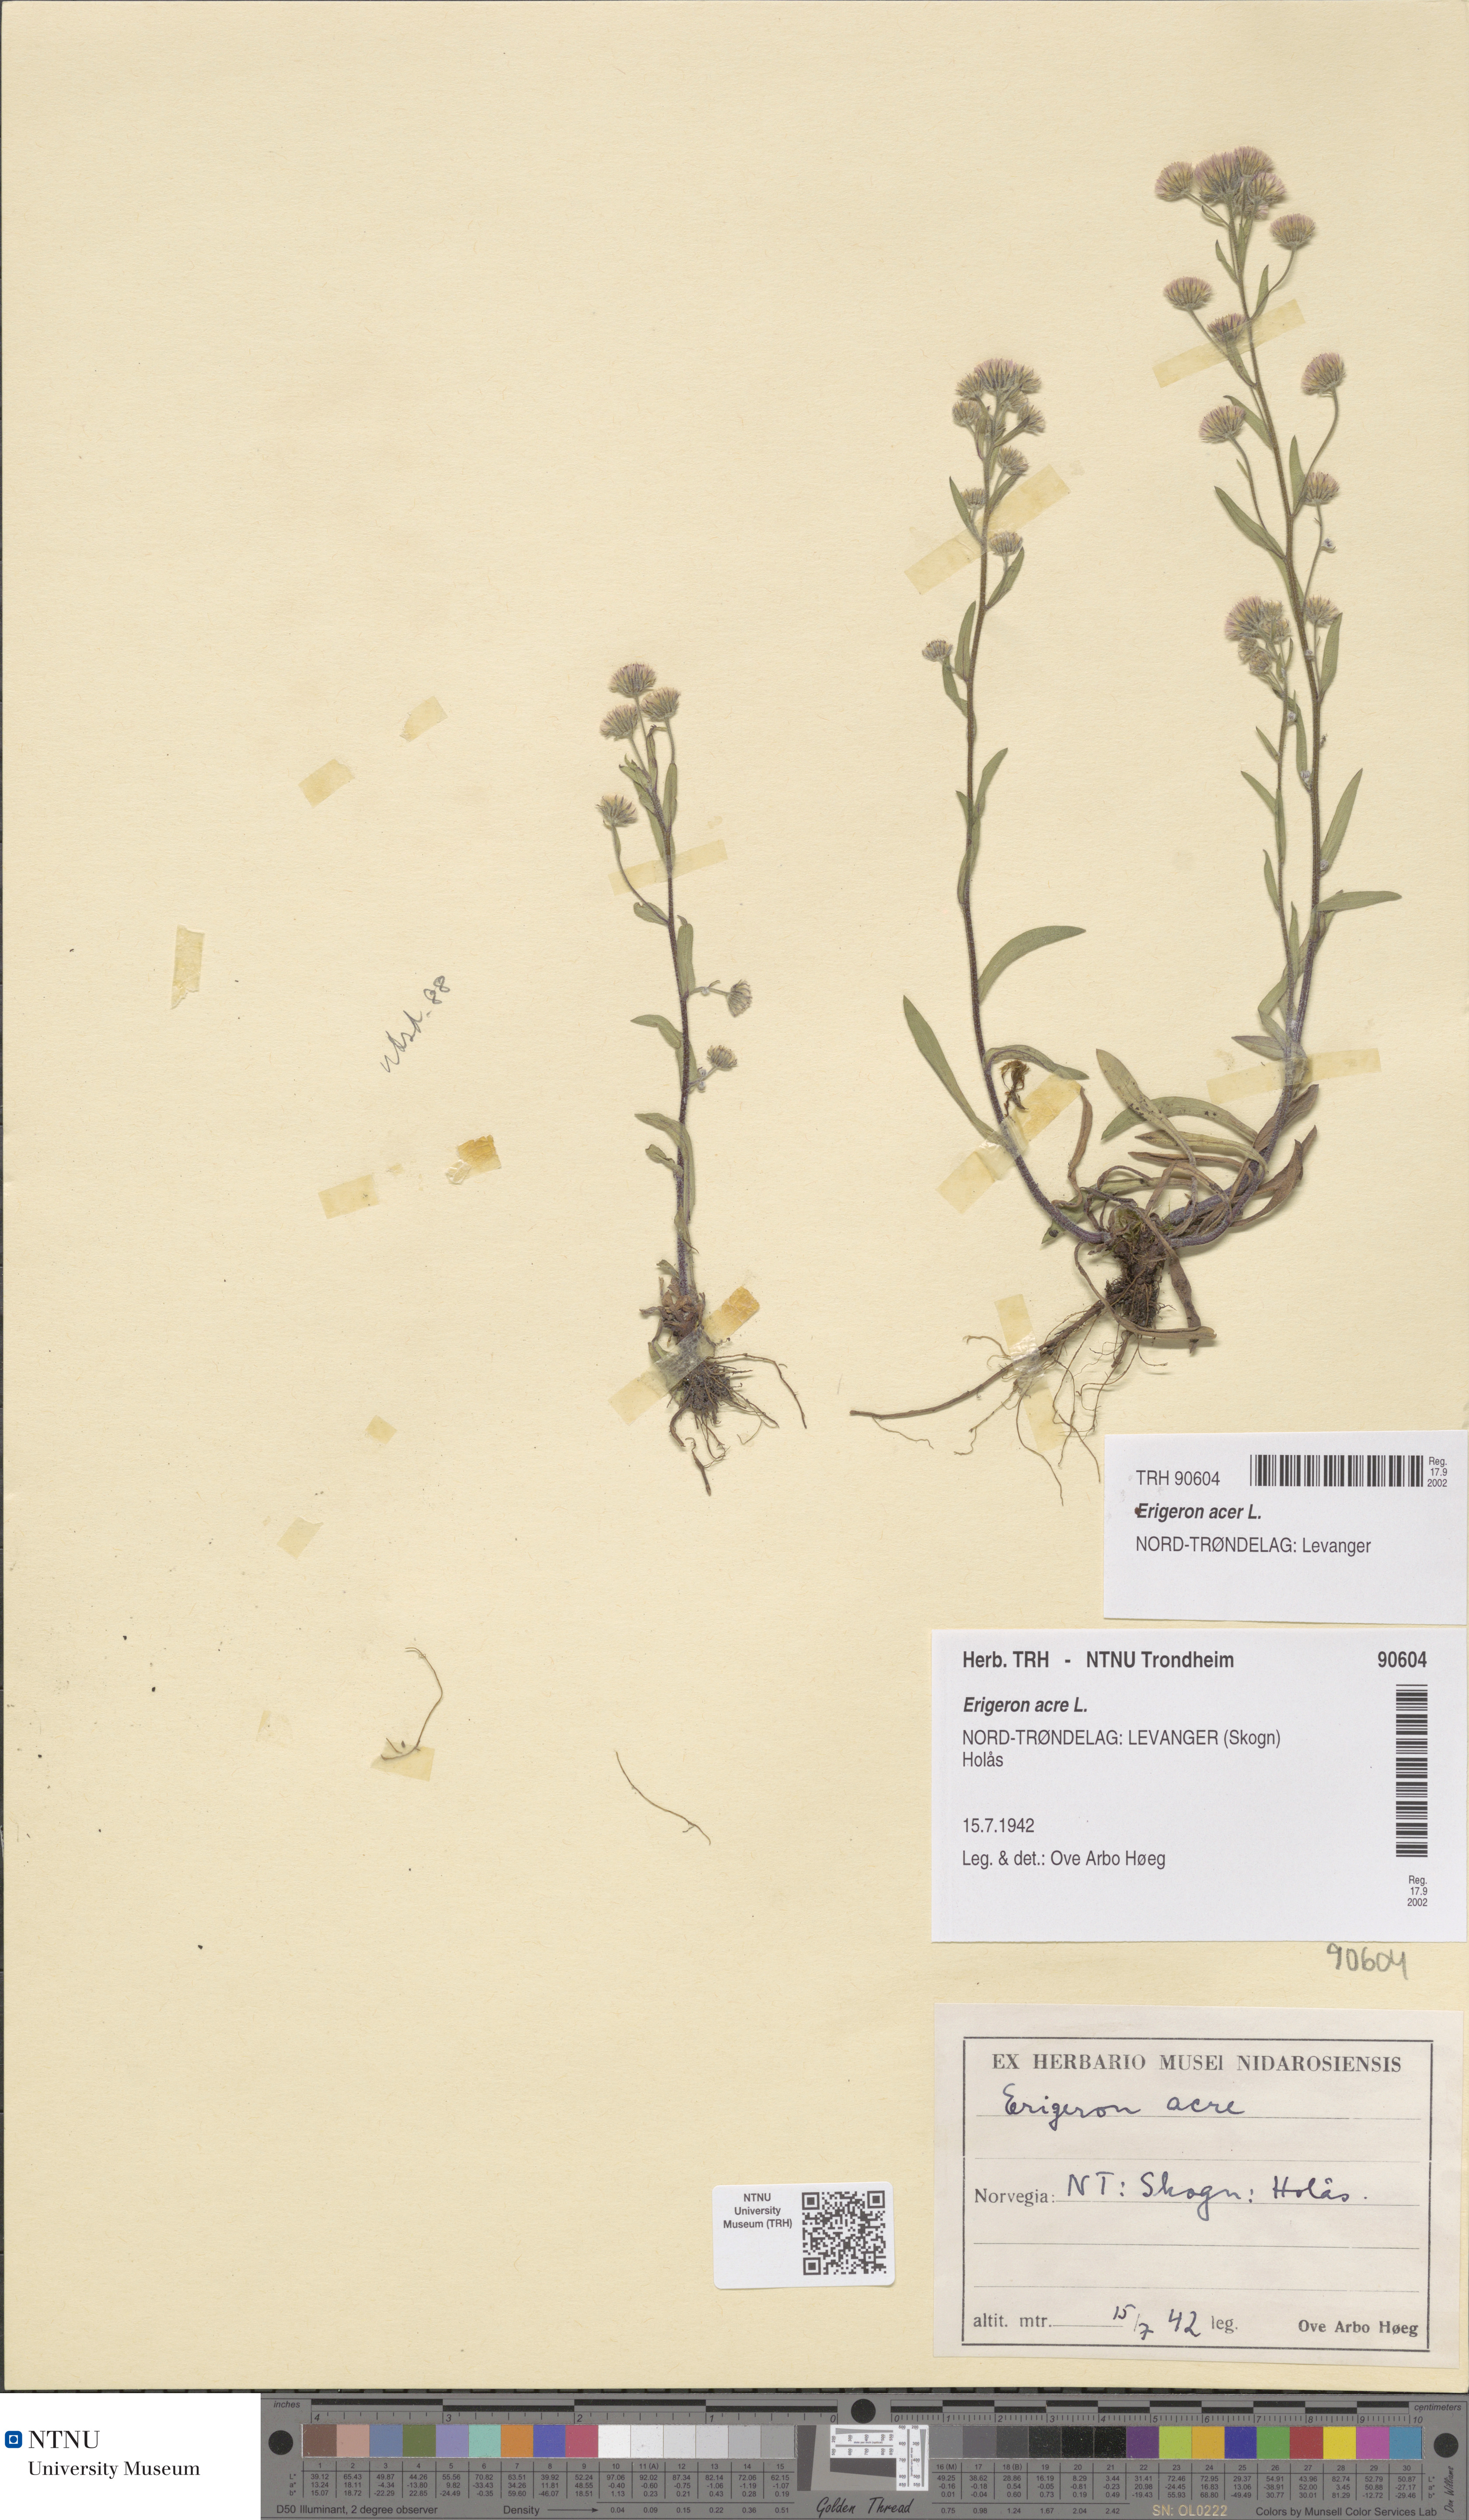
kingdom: Plantae
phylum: Tracheophyta
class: Magnoliopsida
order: Asterales
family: Asteraceae
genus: Erigeron
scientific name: Erigeron acris
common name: Blue fleabane
